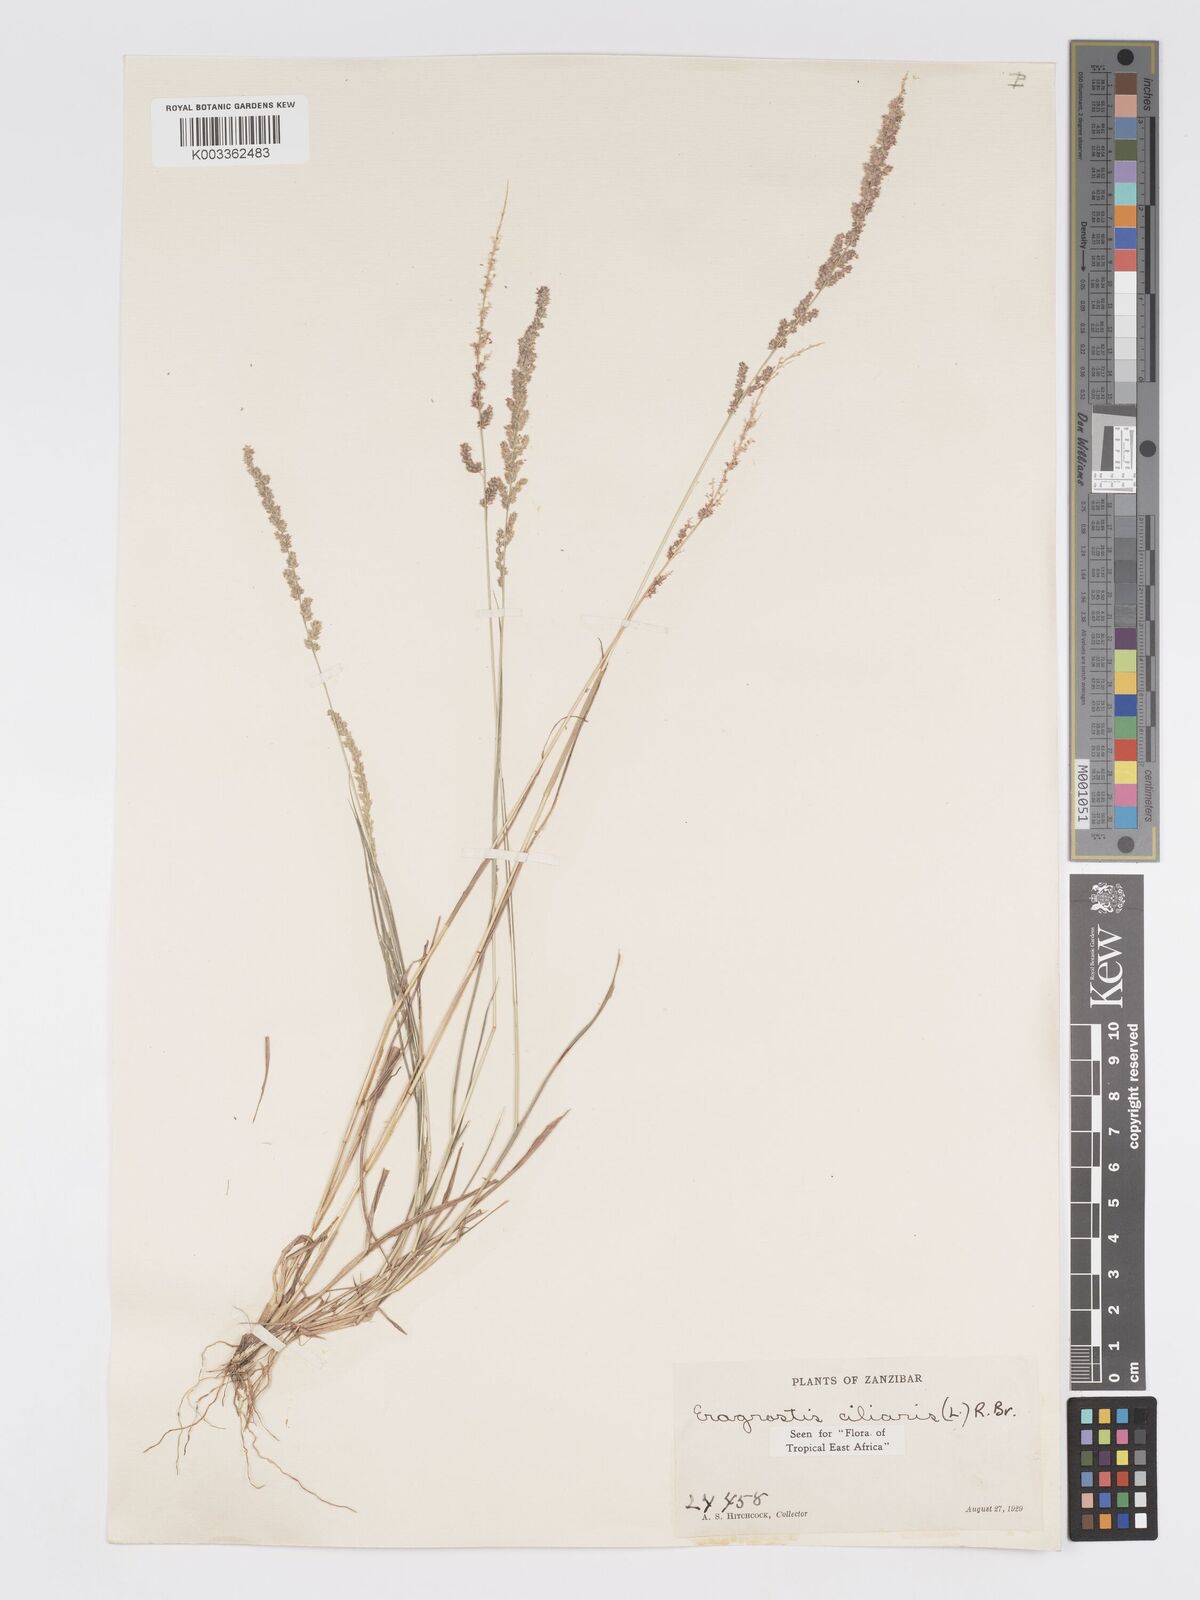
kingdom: Plantae
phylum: Tracheophyta
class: Liliopsida
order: Poales
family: Poaceae
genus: Eragrostis
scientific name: Eragrostis ciliaris
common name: Gophertail lovegrass
